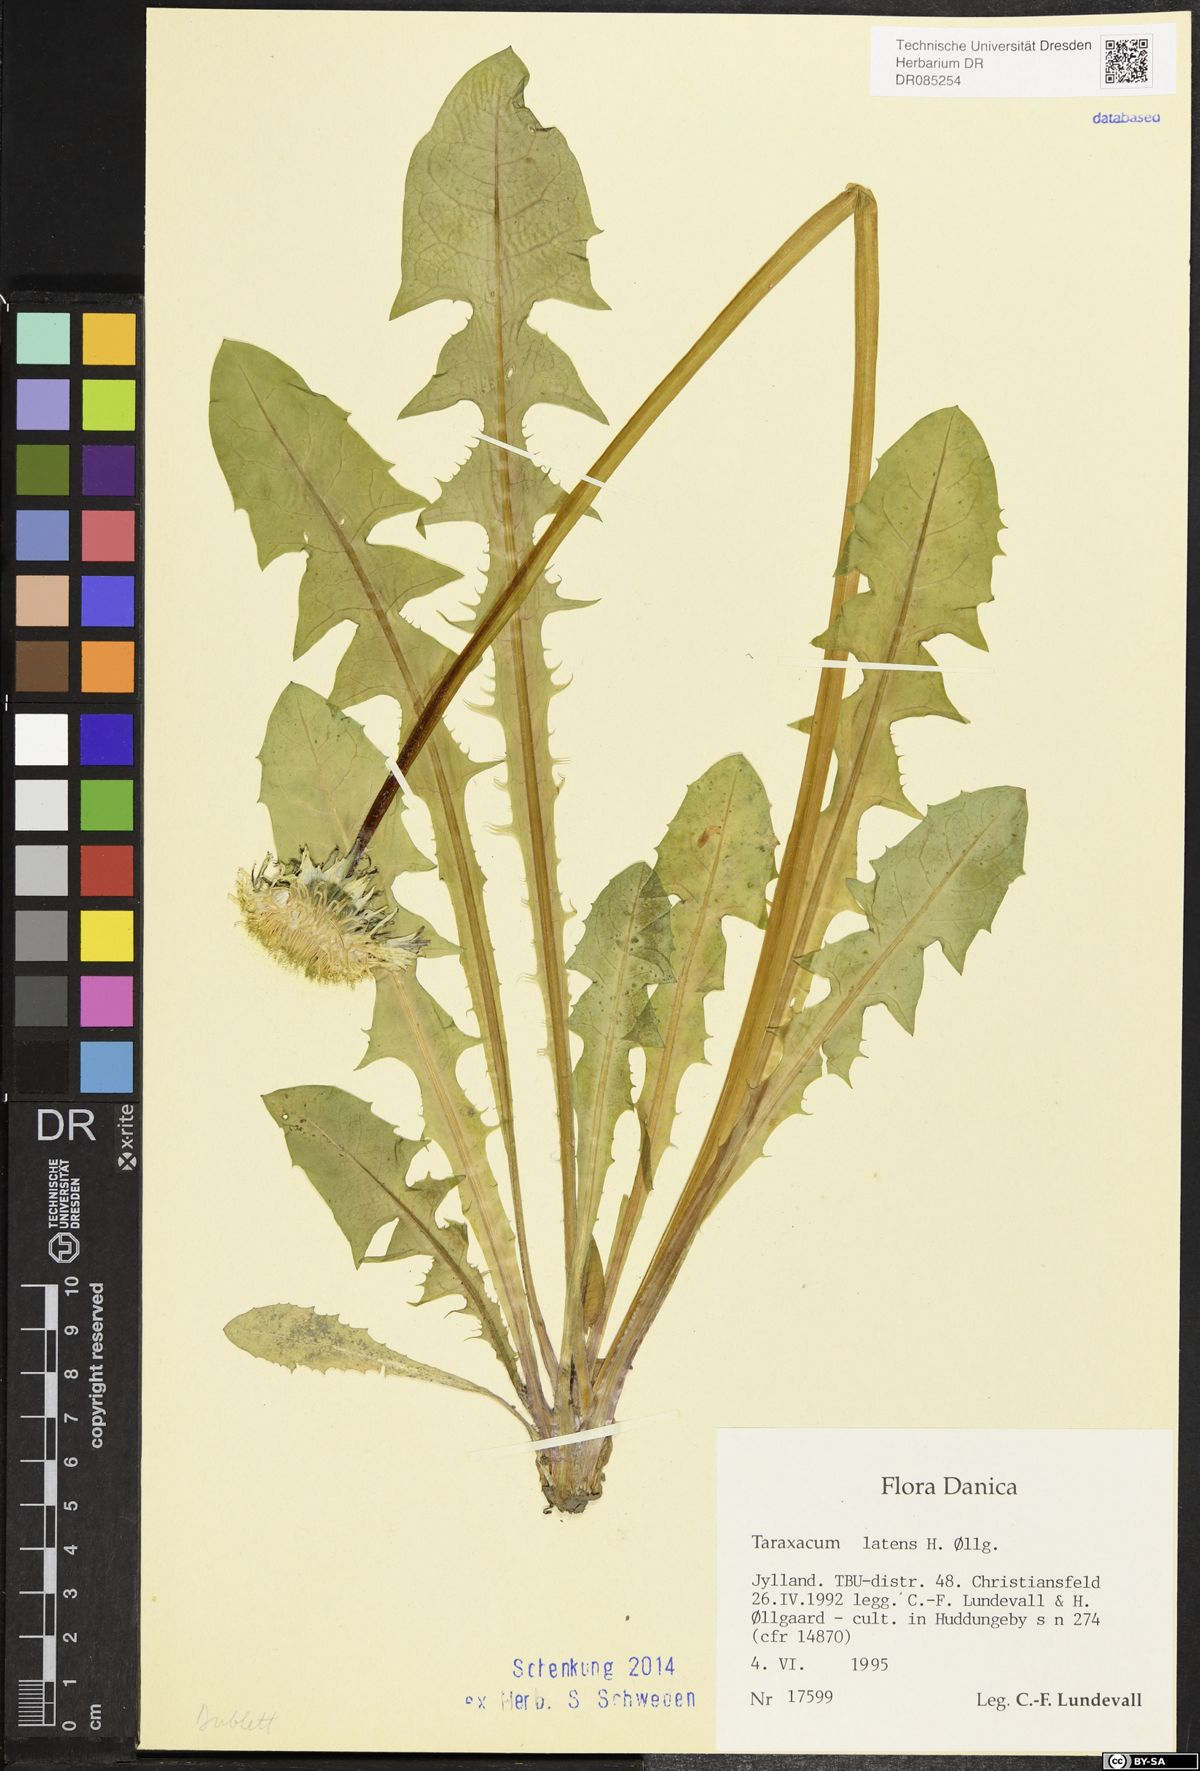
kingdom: Plantae
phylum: Tracheophyta
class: Magnoliopsida
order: Asterales
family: Asteraceae
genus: Taraxacum
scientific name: Taraxacum latens
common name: Cut-lobed dandelion
